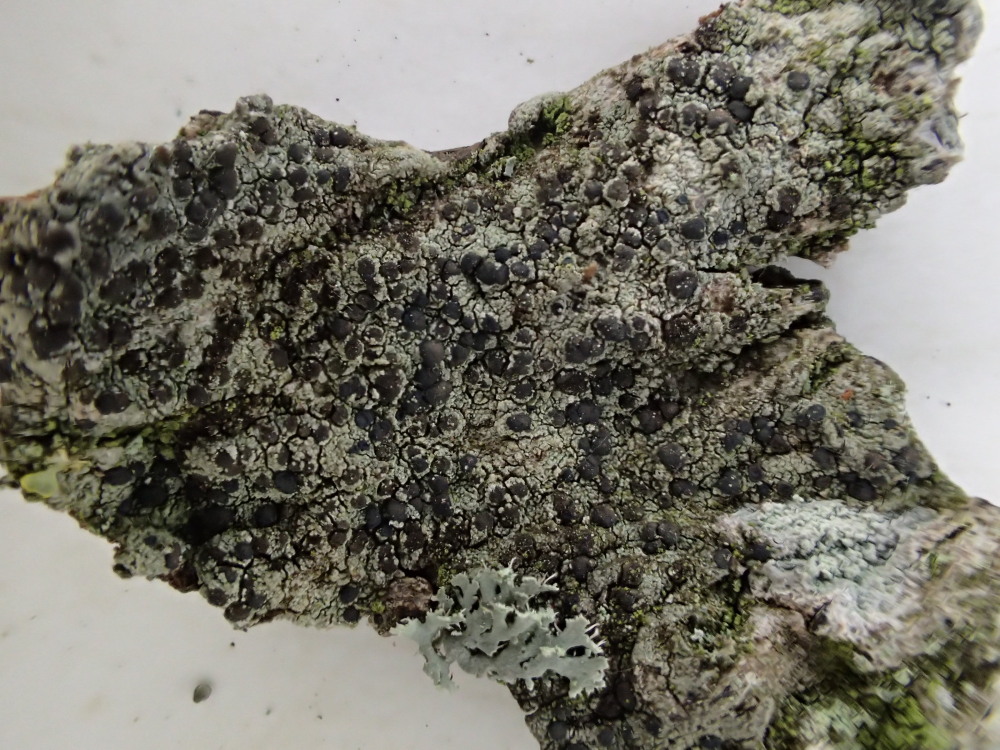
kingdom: Fungi
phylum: Ascomycota
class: Lecanoromycetes
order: Lecanorales
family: Lecanoraceae
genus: Lecidella
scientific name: Lecidella elaeochroma
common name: grågrøn skivelav
